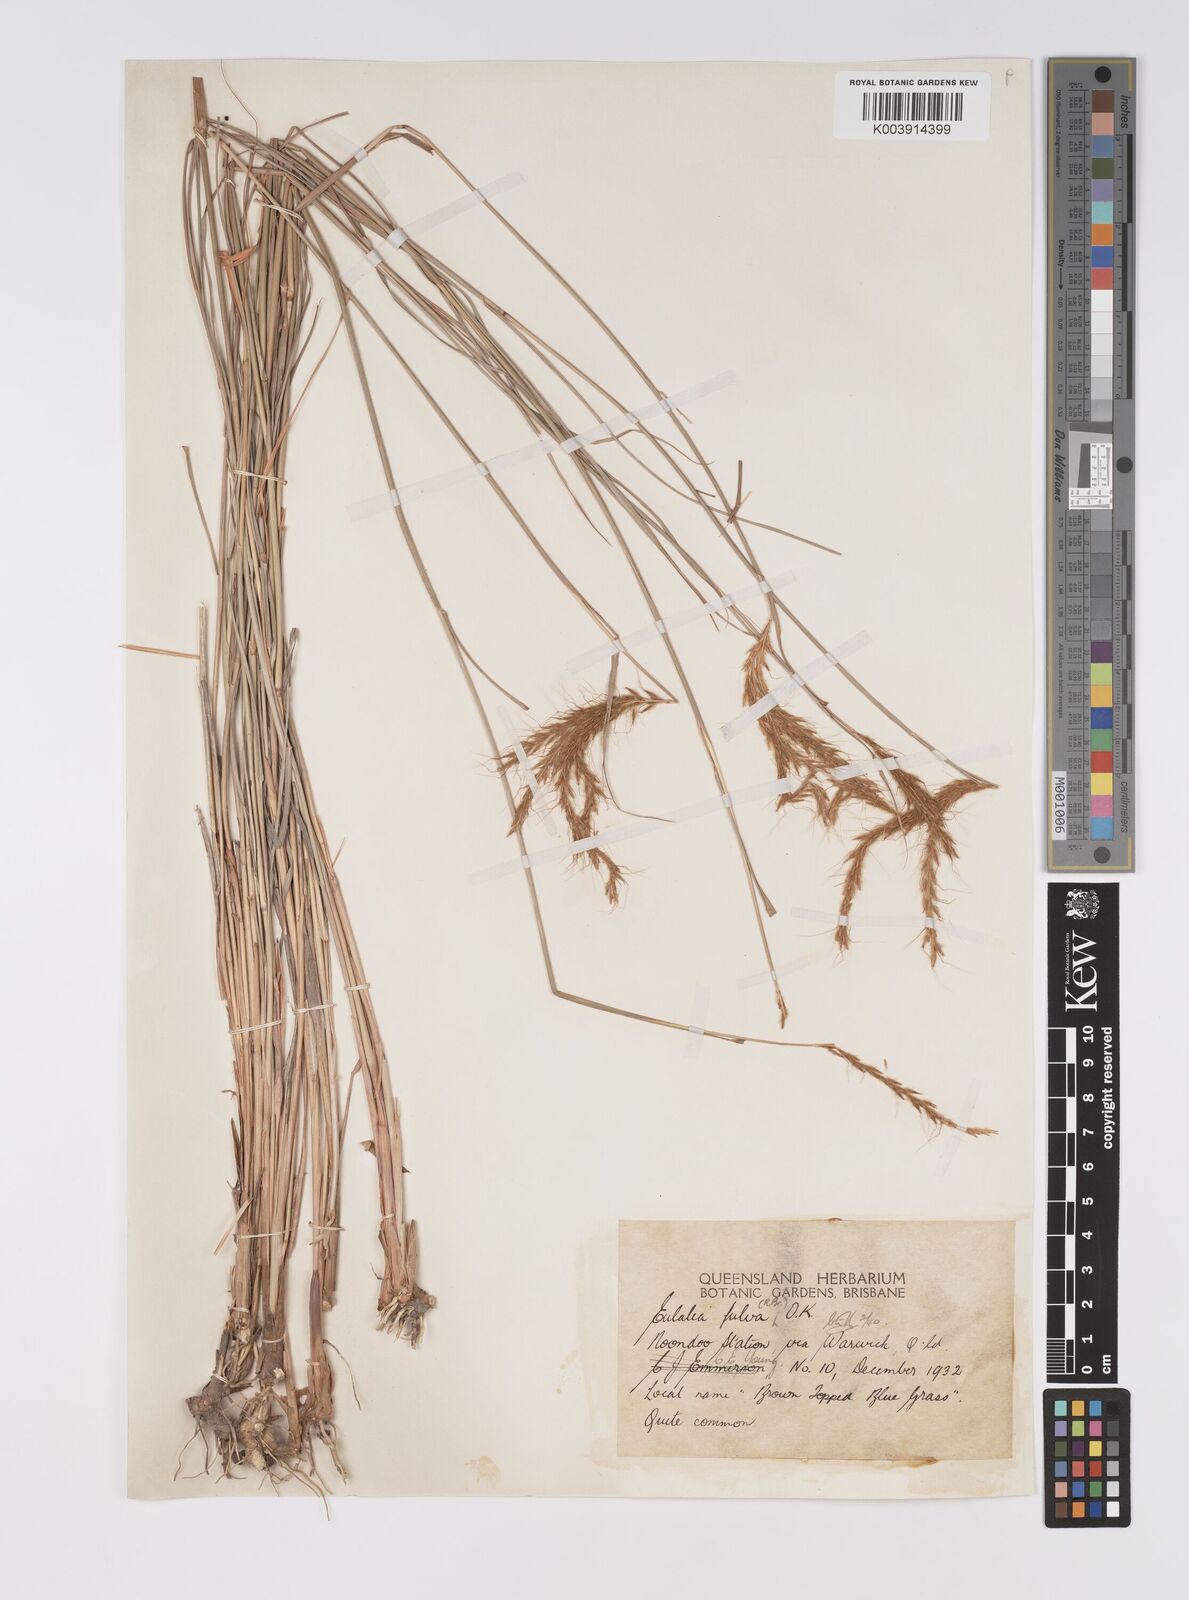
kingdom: Plantae
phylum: Tracheophyta
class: Liliopsida
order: Poales
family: Poaceae
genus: Eulalia
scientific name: Eulalia aurea
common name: Silky browntop
